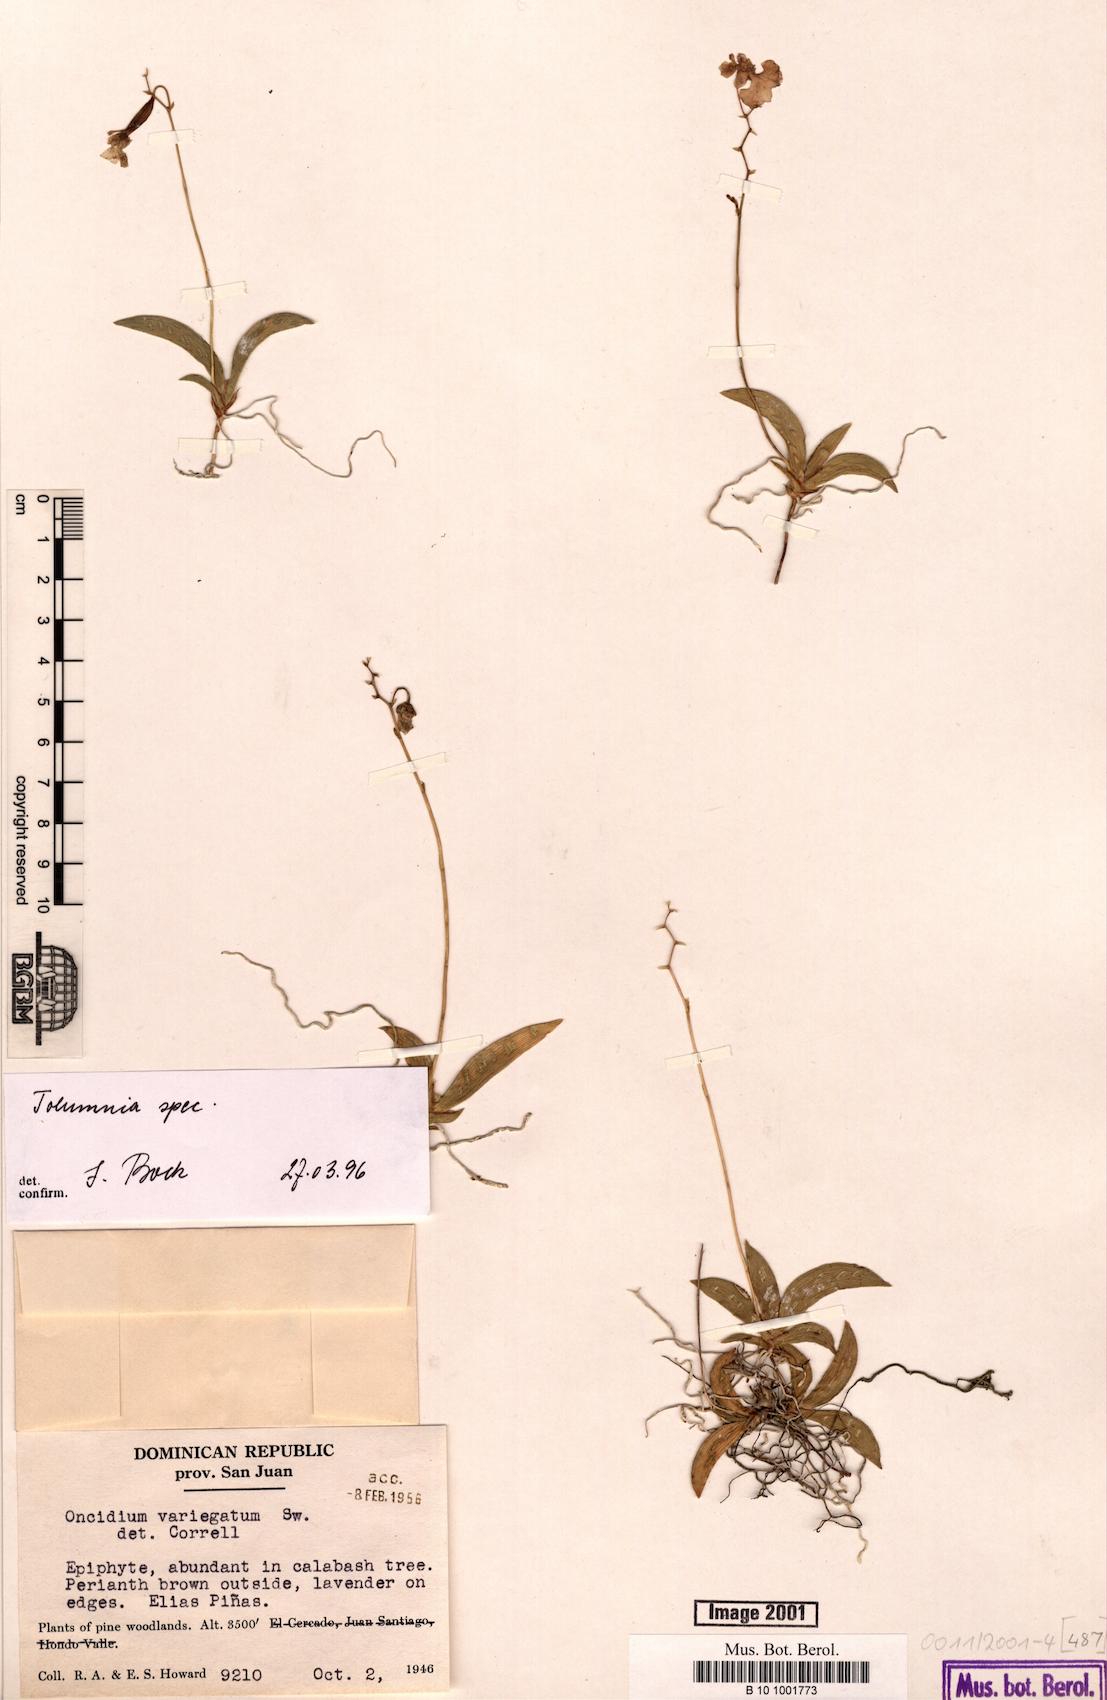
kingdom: Plantae
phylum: Tracheophyta
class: Liliopsida
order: Asparagales
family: Orchidaceae
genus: Tolumnia
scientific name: Tolumnia
